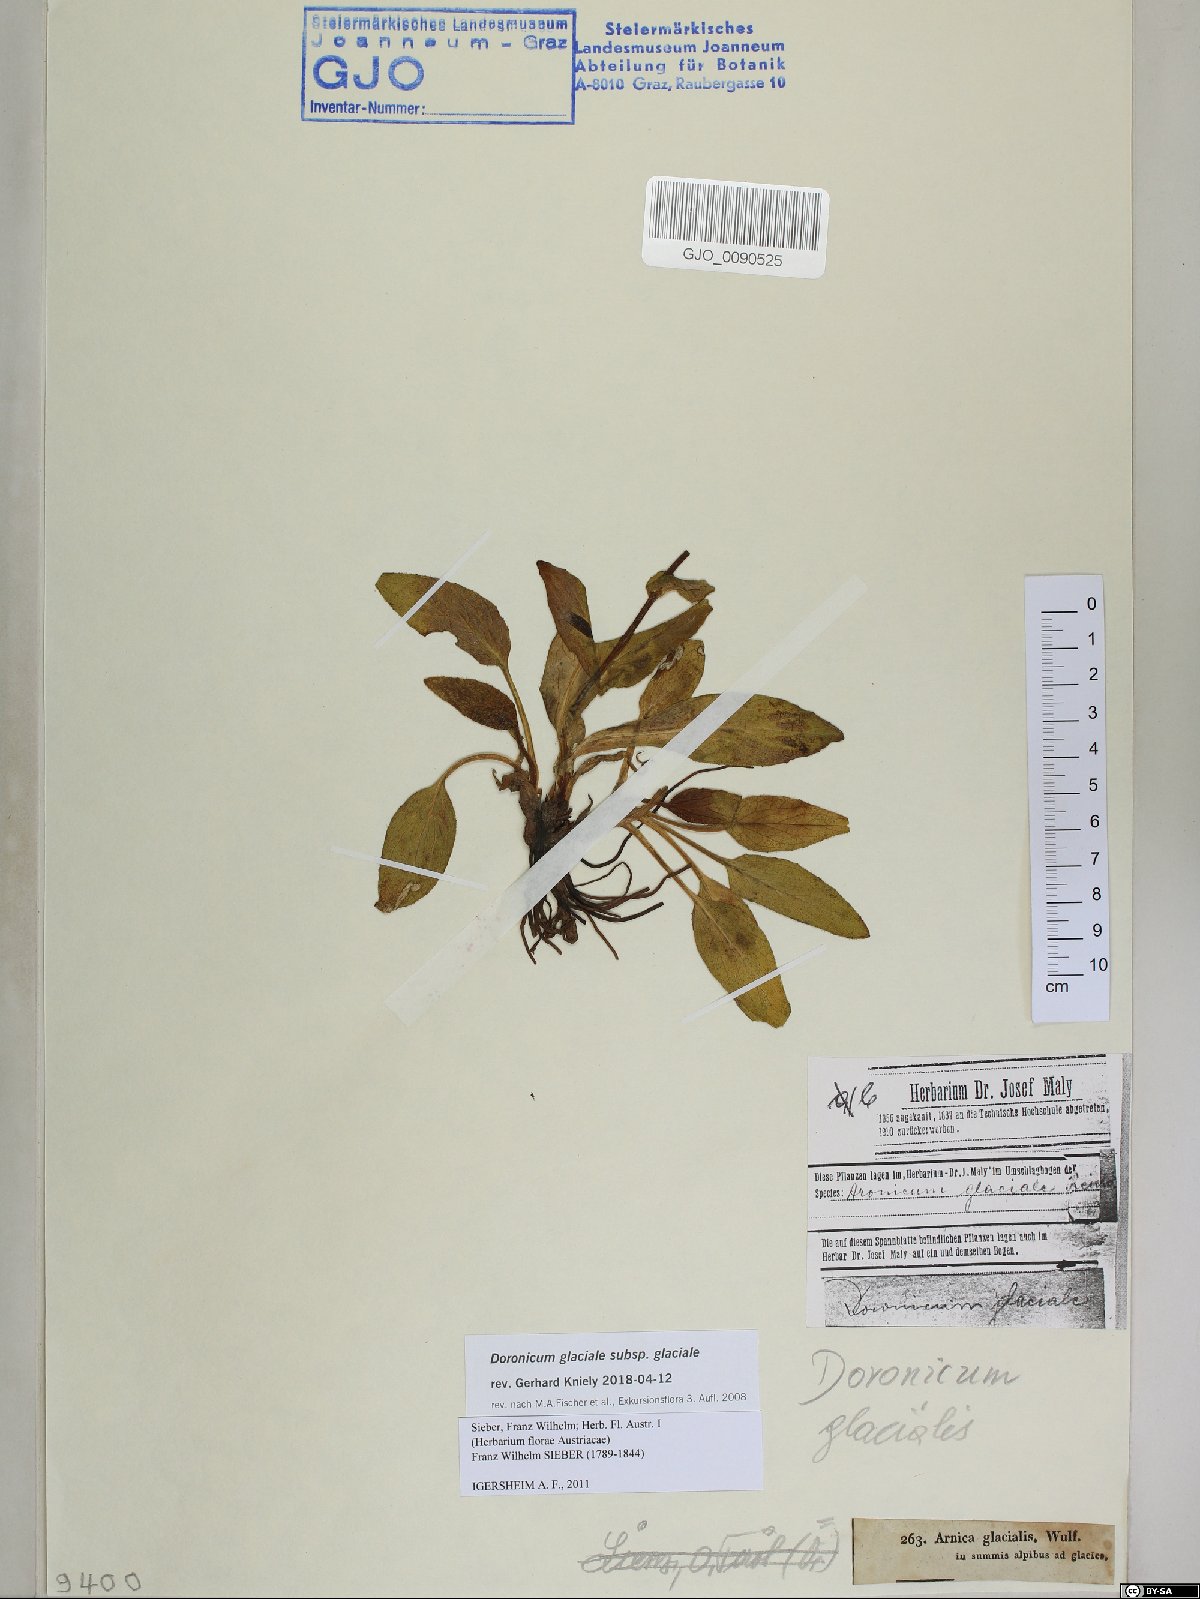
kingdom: Plantae
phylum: Tracheophyta
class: Magnoliopsida
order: Asterales
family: Asteraceae
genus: Doronicum
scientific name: Doronicum glaciale
